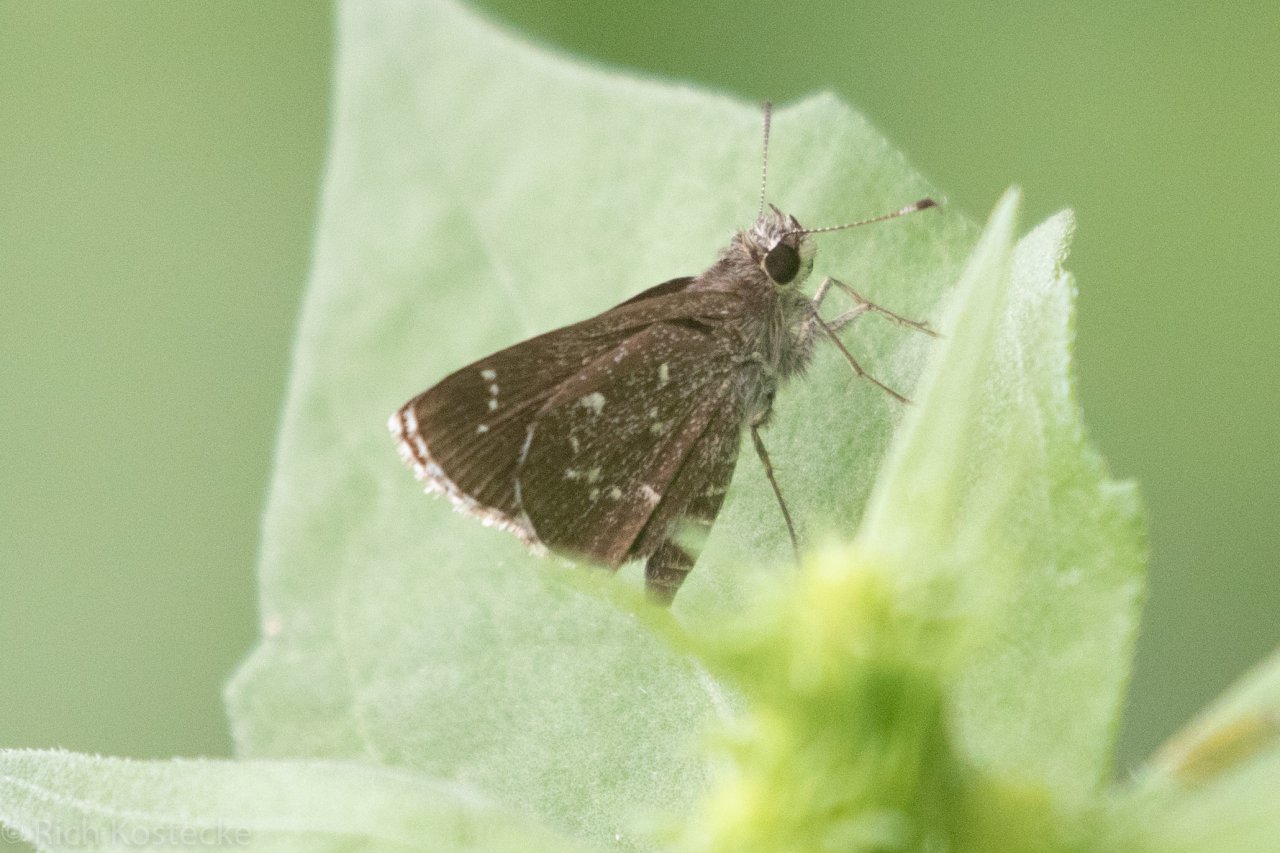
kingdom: Animalia
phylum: Arthropoda
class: Insecta
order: Lepidoptera
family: Hesperiidae
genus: Mastor
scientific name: Mastor celia
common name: Celia's Roadside-Skipper
